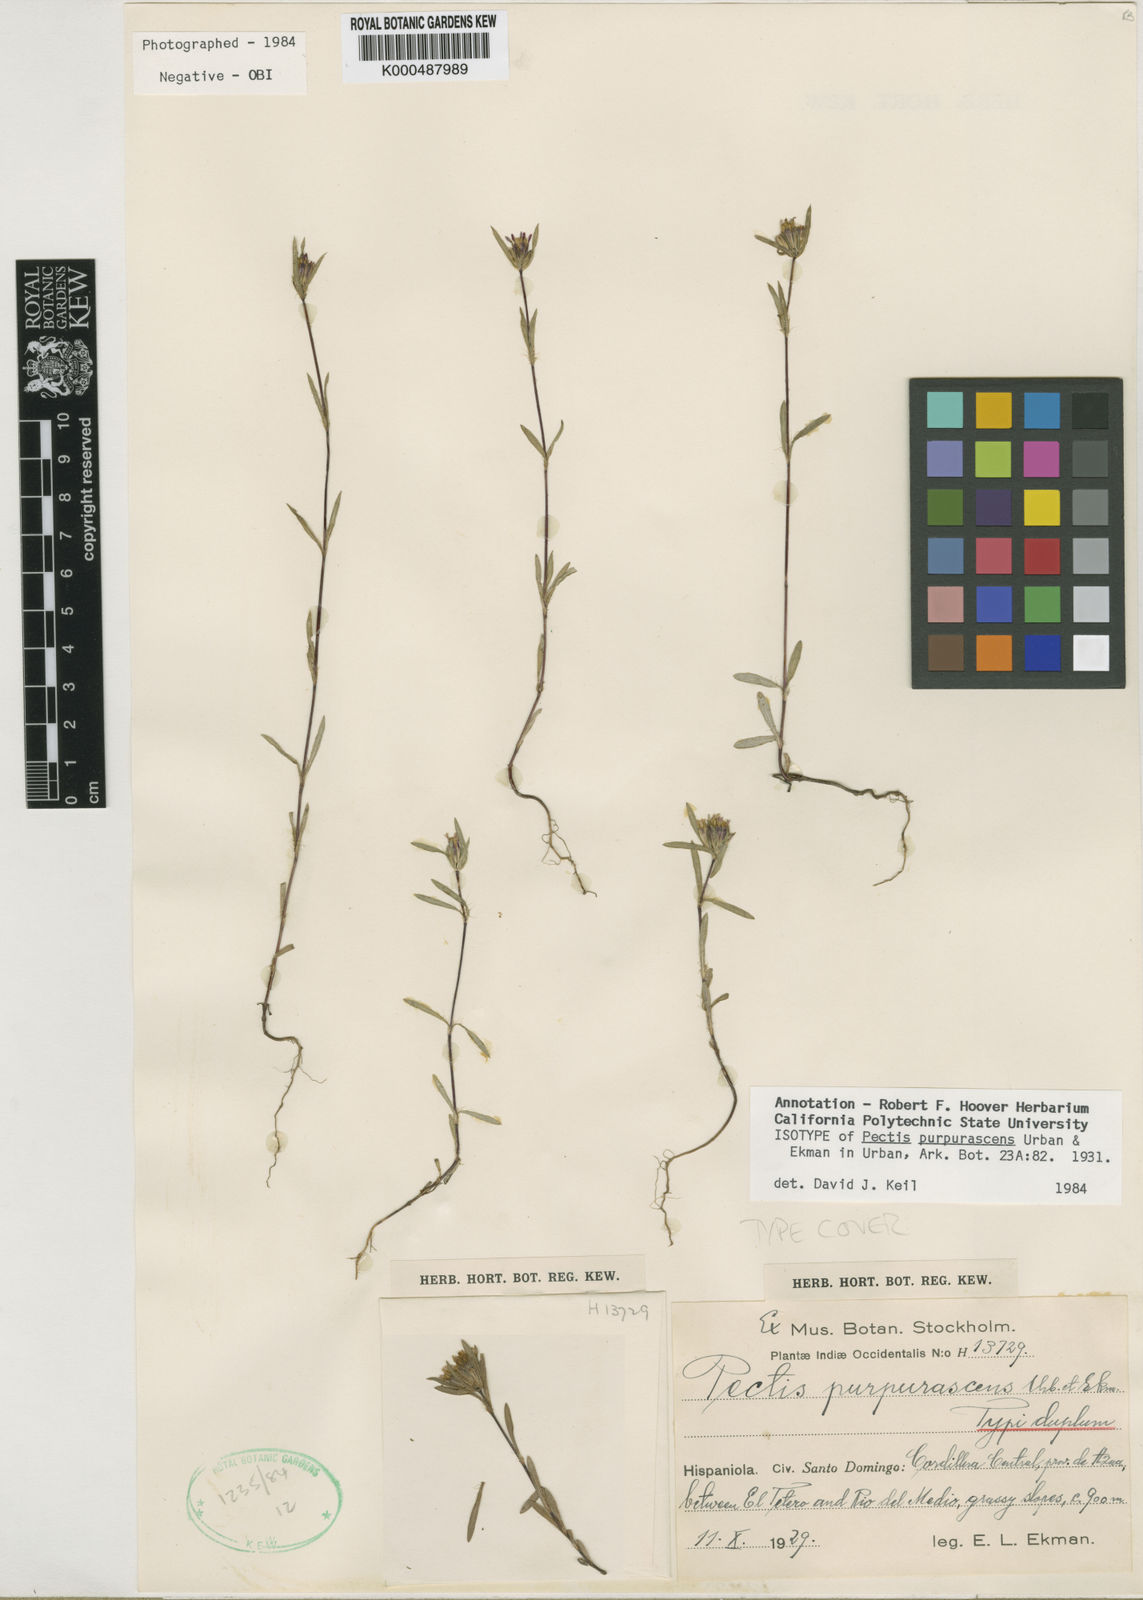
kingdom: Plantae
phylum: Tracheophyta
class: Magnoliopsida
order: Asterales
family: Asteraceae
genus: Pectis
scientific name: Pectis purpurascens
